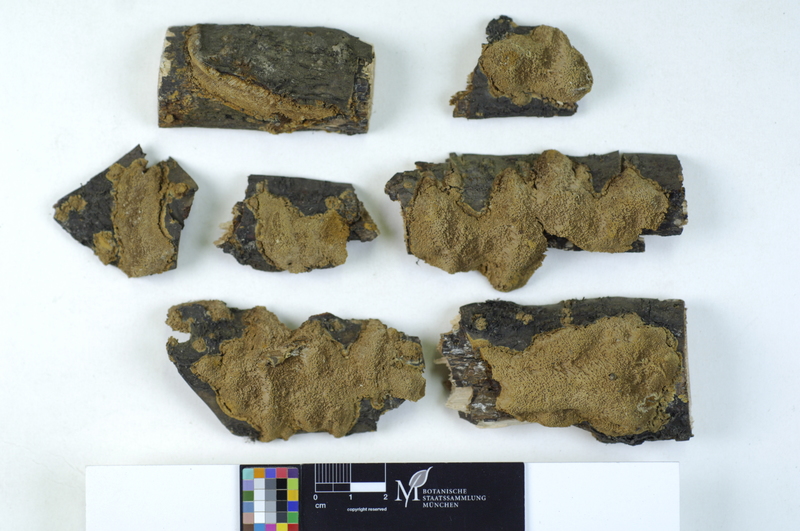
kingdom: Plantae
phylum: Tracheophyta
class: Magnoliopsida
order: Rosales
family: Rhamnaceae
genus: Rhamnus
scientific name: Rhamnus cathartica
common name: Common buckthorn
